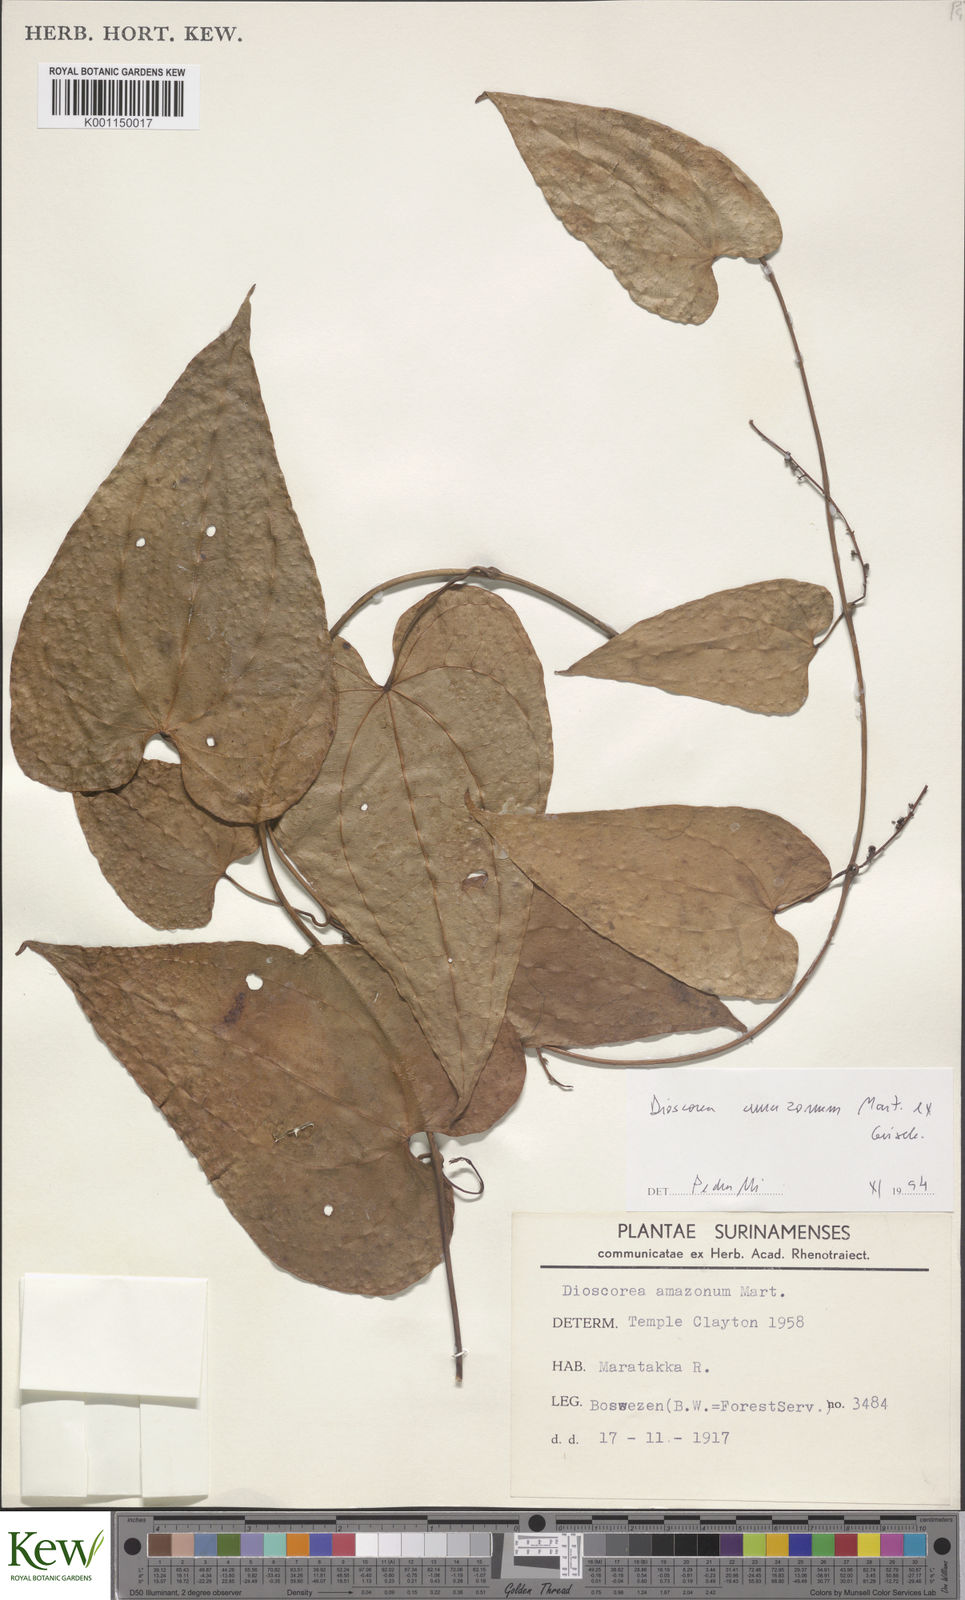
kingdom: Plantae
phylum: Tracheophyta
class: Liliopsida
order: Dioscoreales
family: Dioscoreaceae
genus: Dioscorea
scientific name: Dioscorea amazonum
